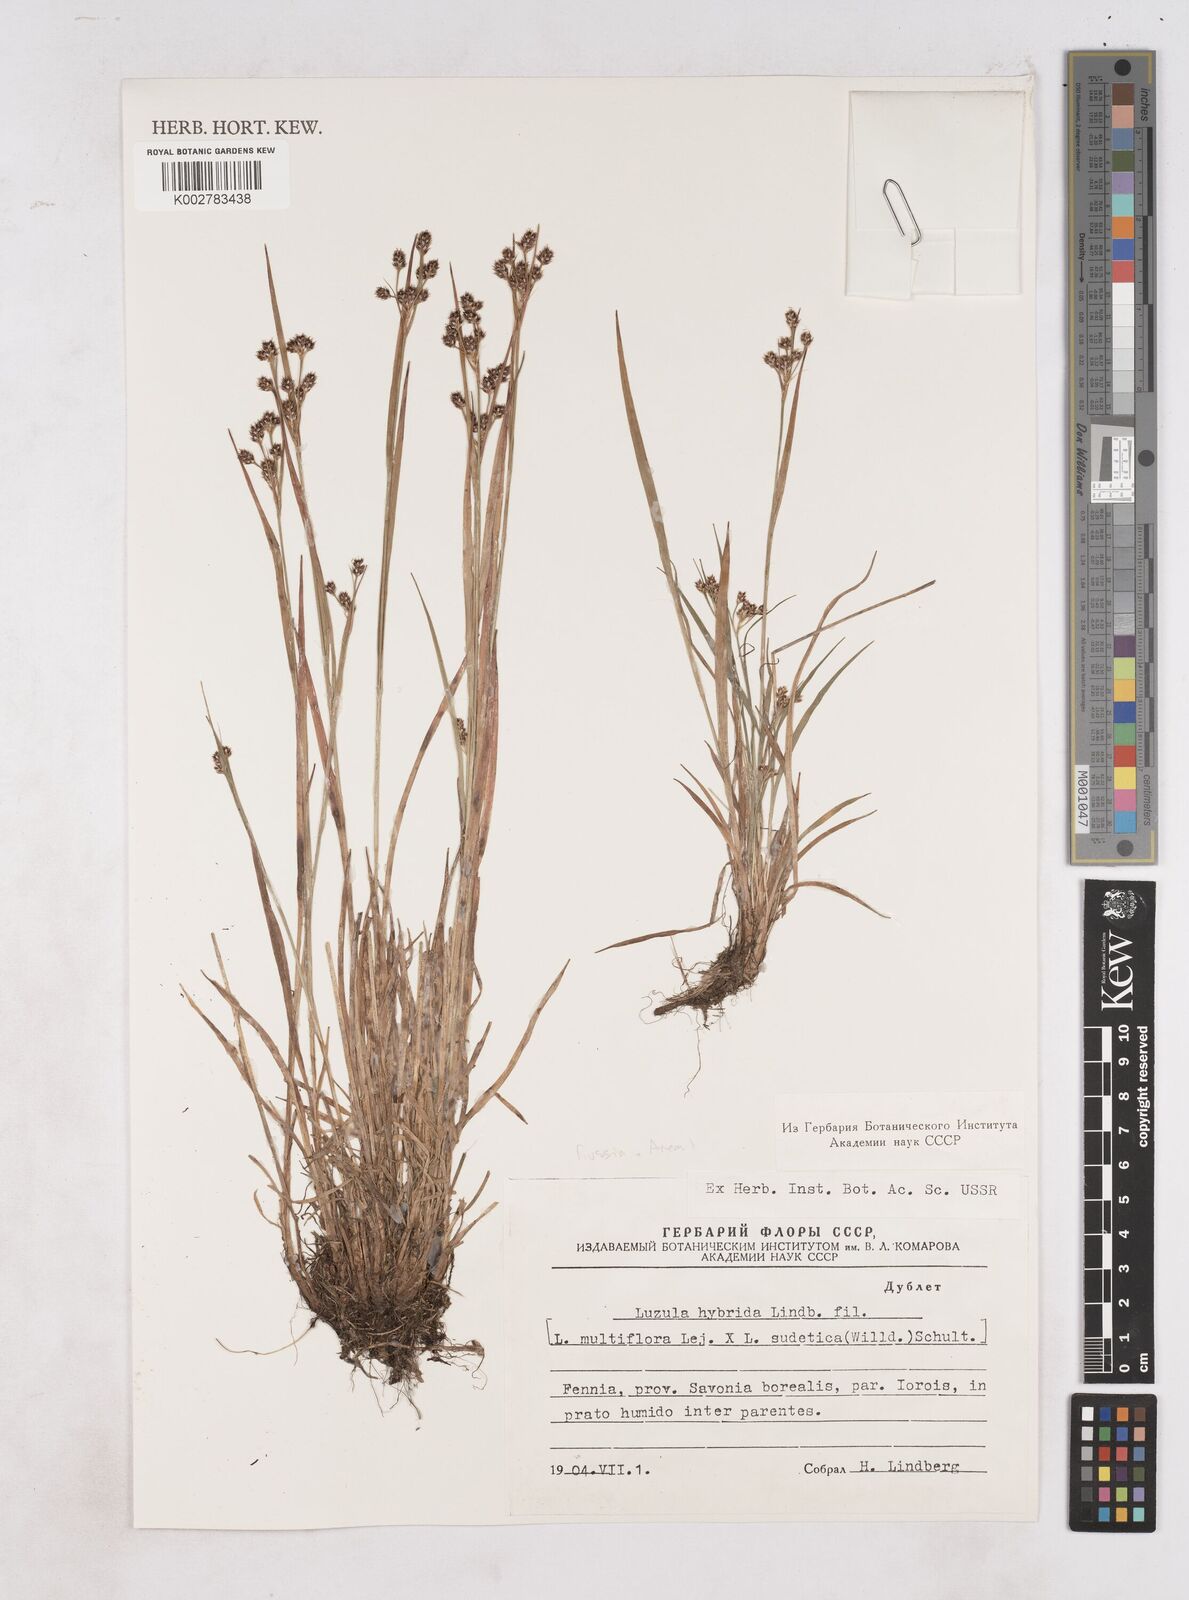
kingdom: Plantae
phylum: Tracheophyta
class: Liliopsida
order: Poales
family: Juncaceae
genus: Luzula
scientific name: Luzula hybrida
